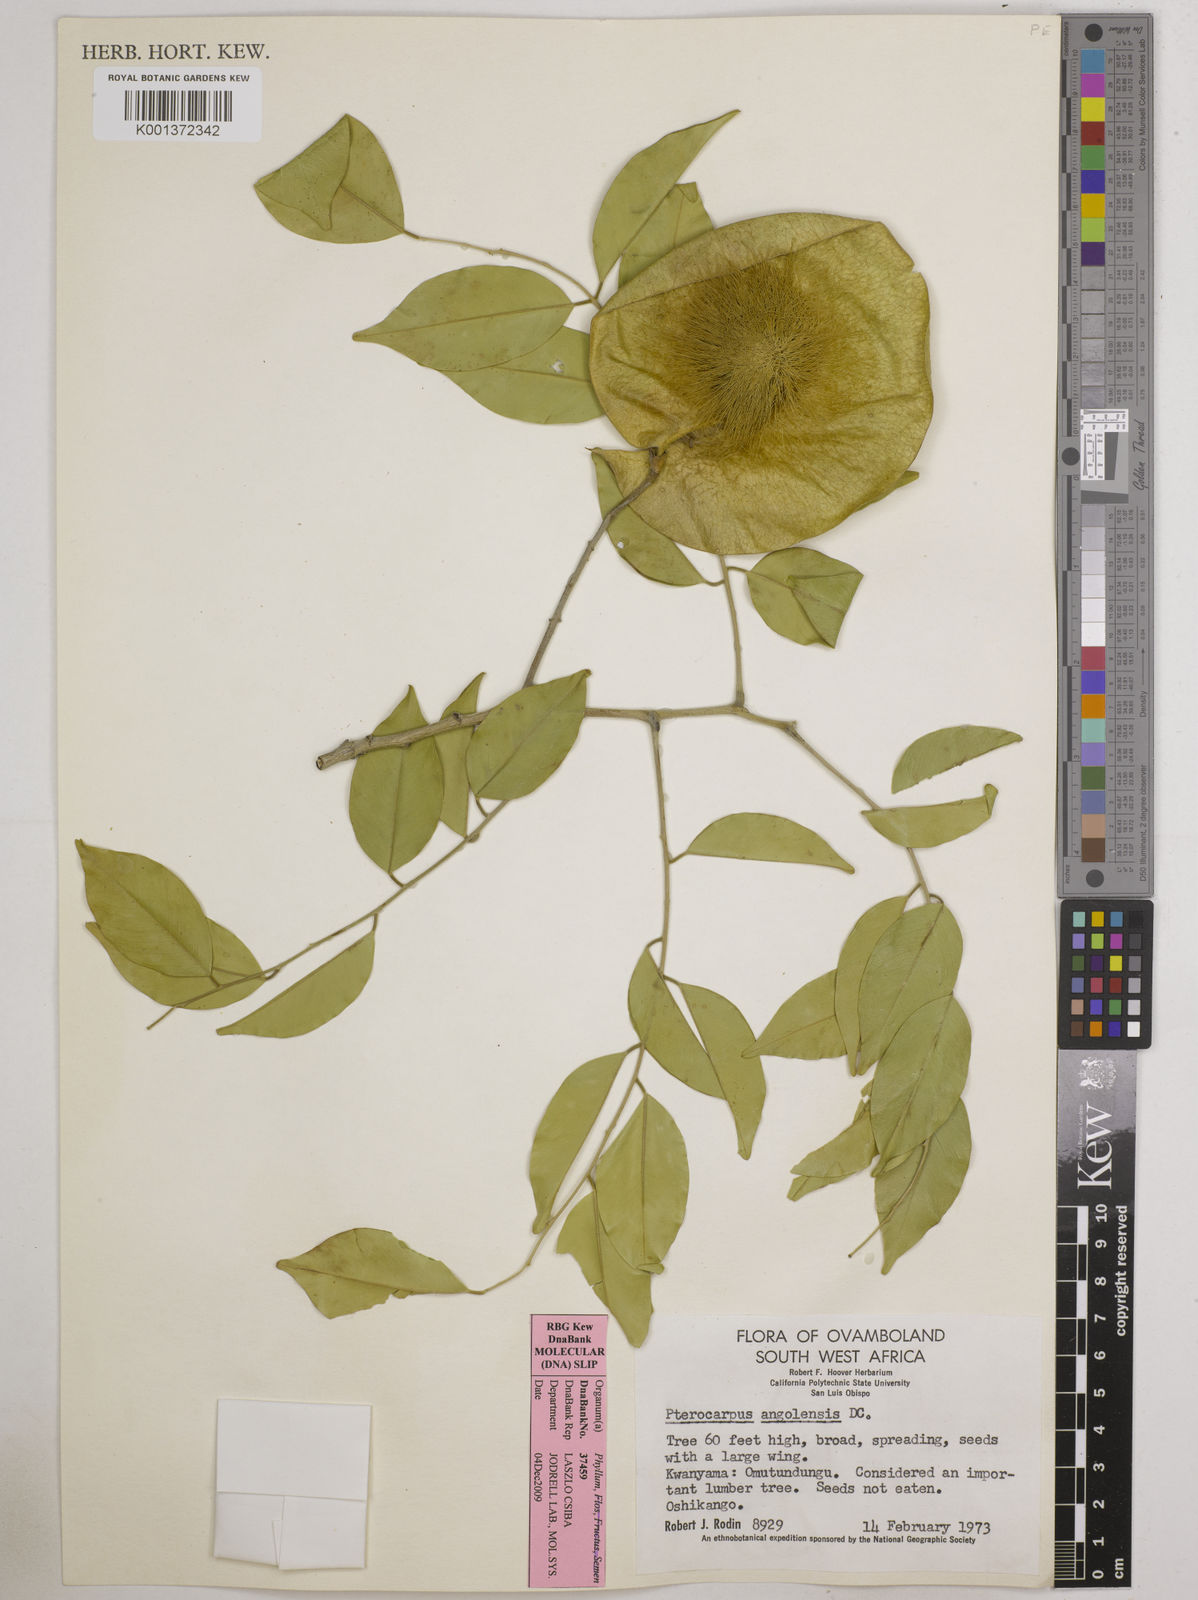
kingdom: Plantae
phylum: Tracheophyta
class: Magnoliopsida
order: Fabales
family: Fabaceae
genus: Pterocarpus
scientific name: Pterocarpus angolensis
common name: Bloodwood tree
